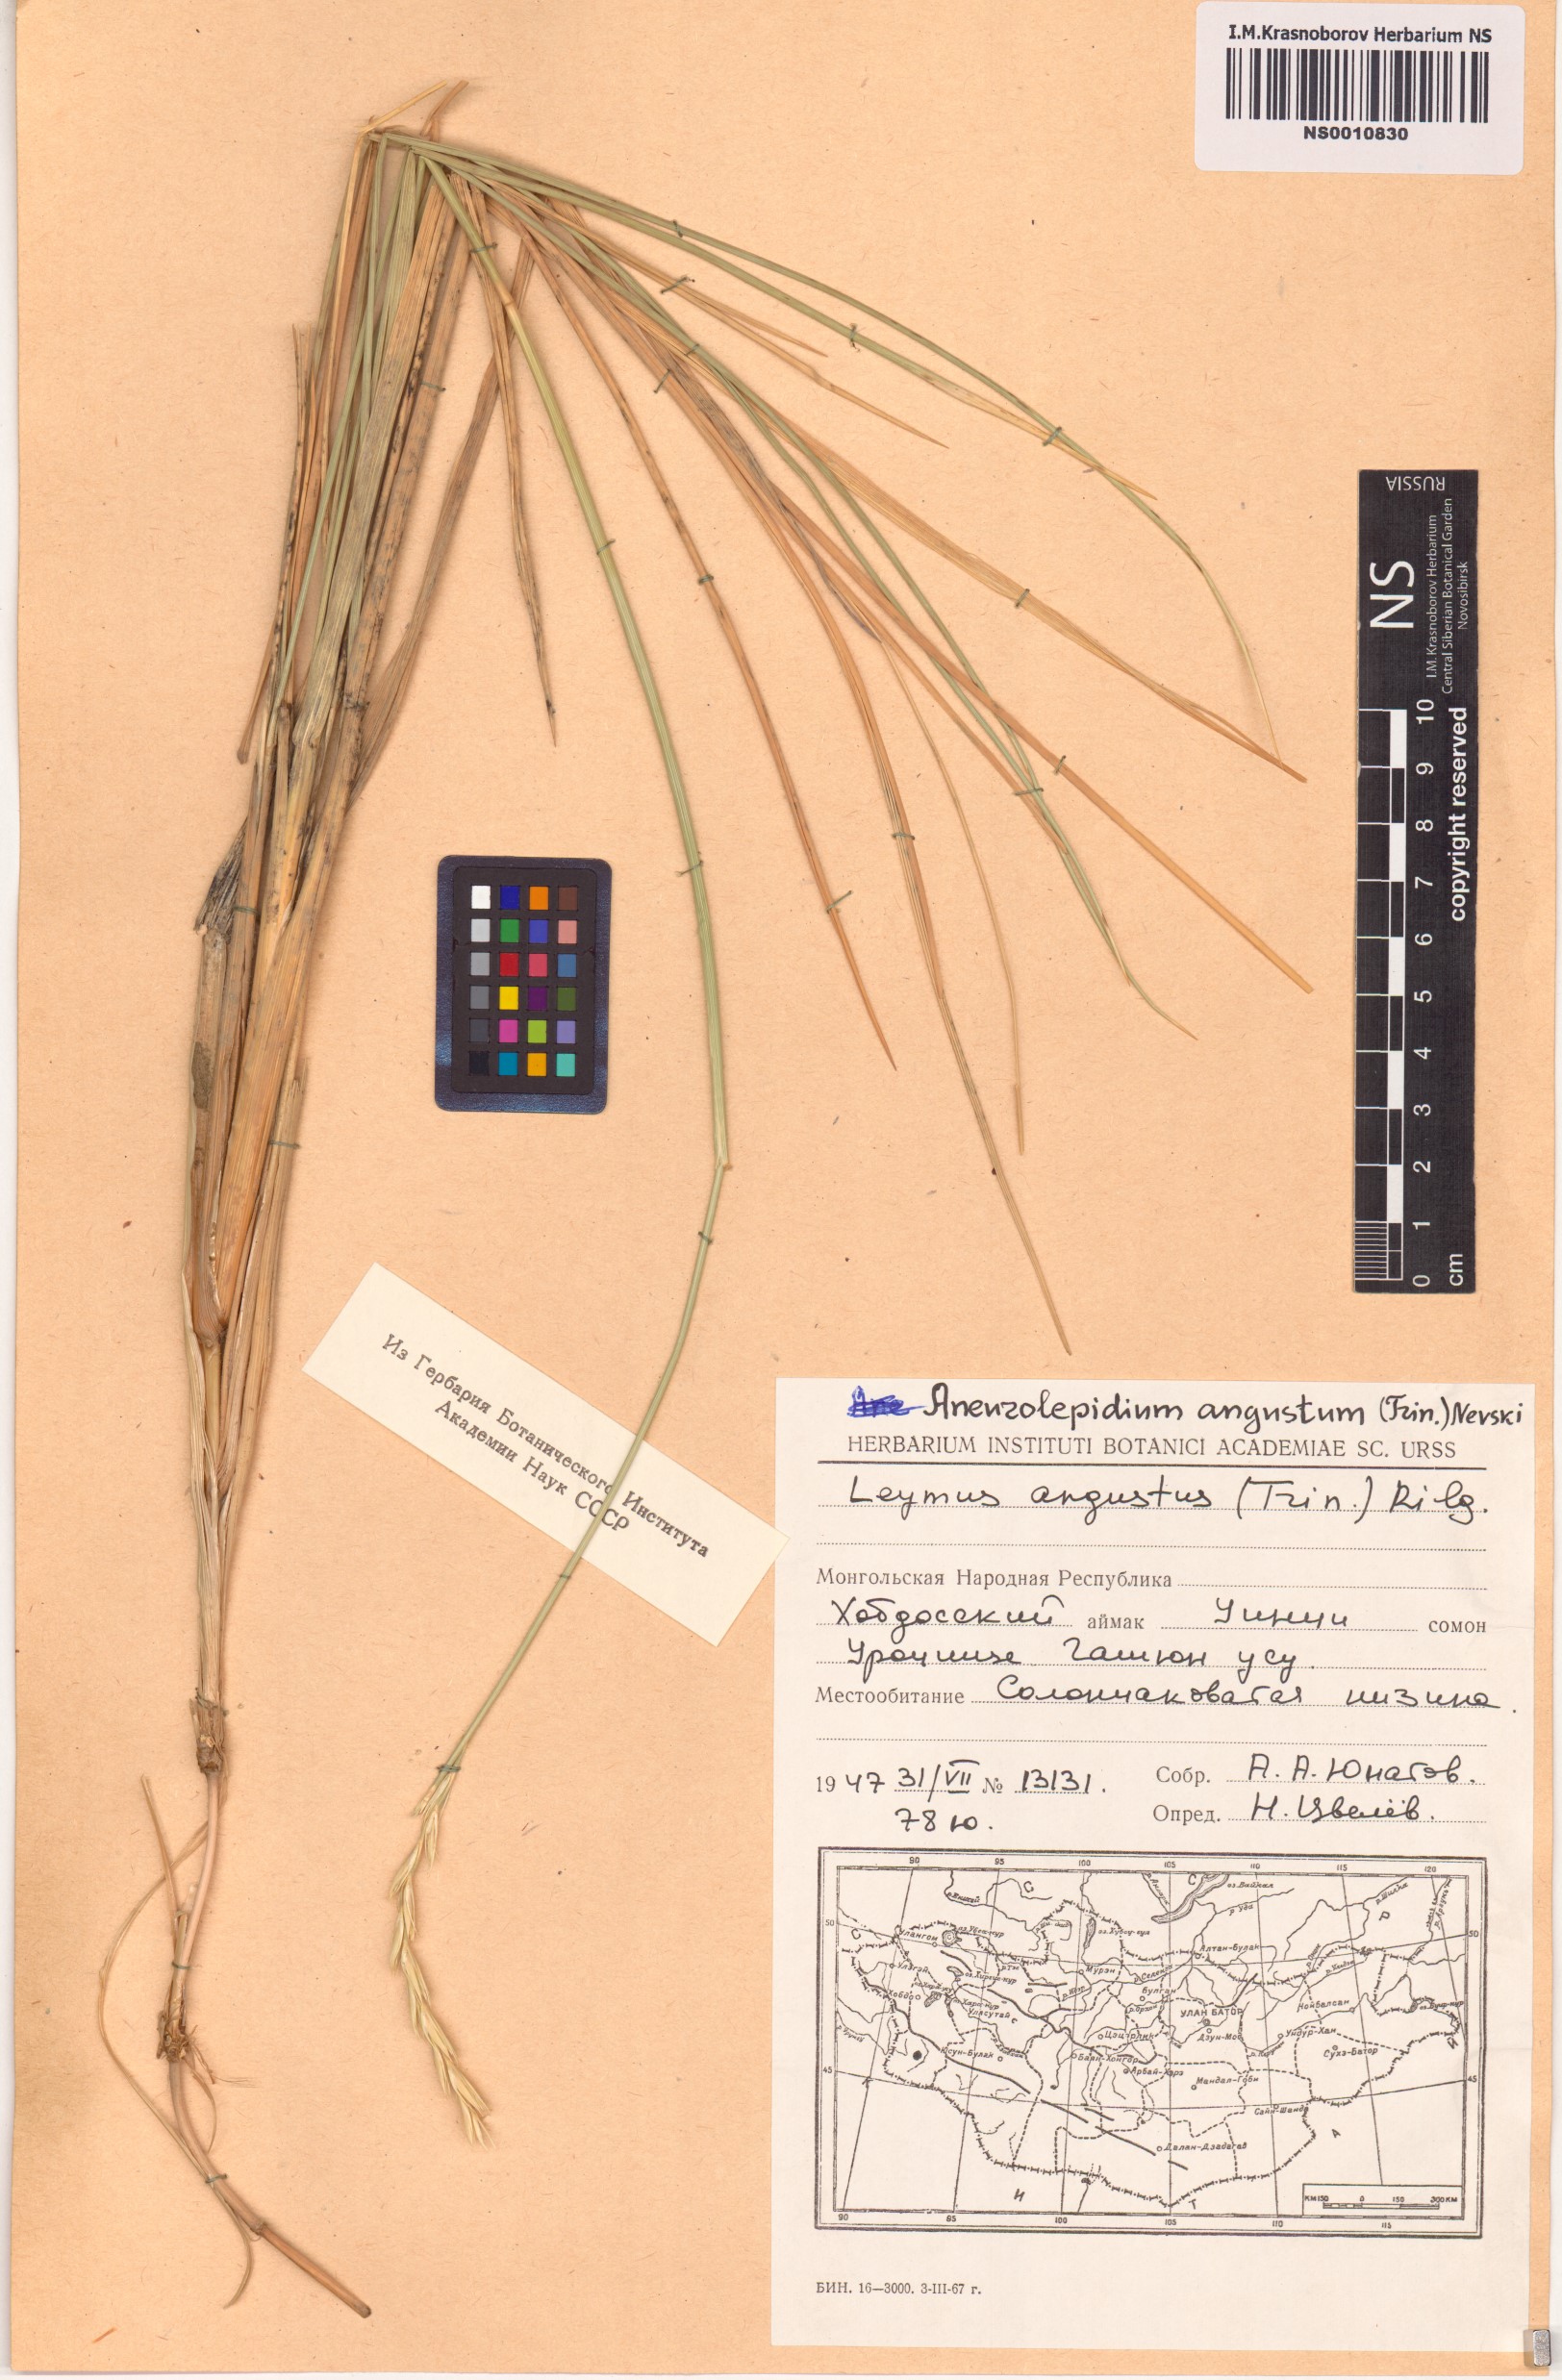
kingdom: Plantae
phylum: Tracheophyta
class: Liliopsida
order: Poales
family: Poaceae
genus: Leymus
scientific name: Leymus angustus
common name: Altai wildrye
